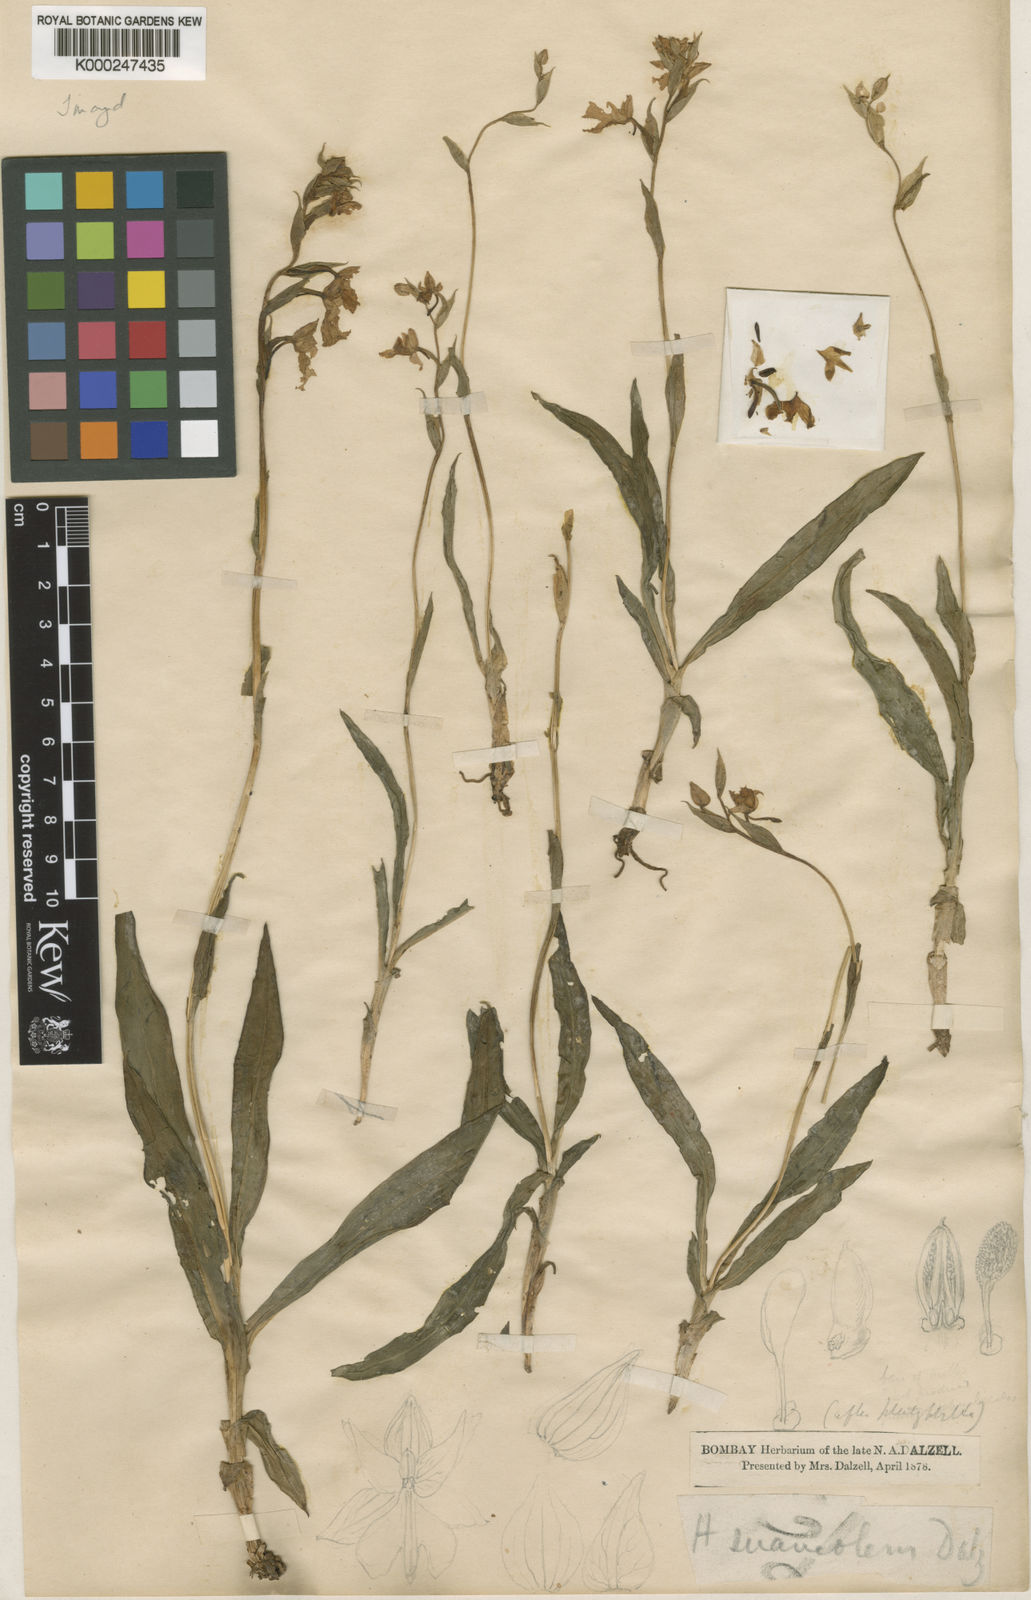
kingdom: Plantae
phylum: Tracheophyta
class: Liliopsida
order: Asparagales
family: Orchidaceae
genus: Habenaria
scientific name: Habenaria suaveolens
